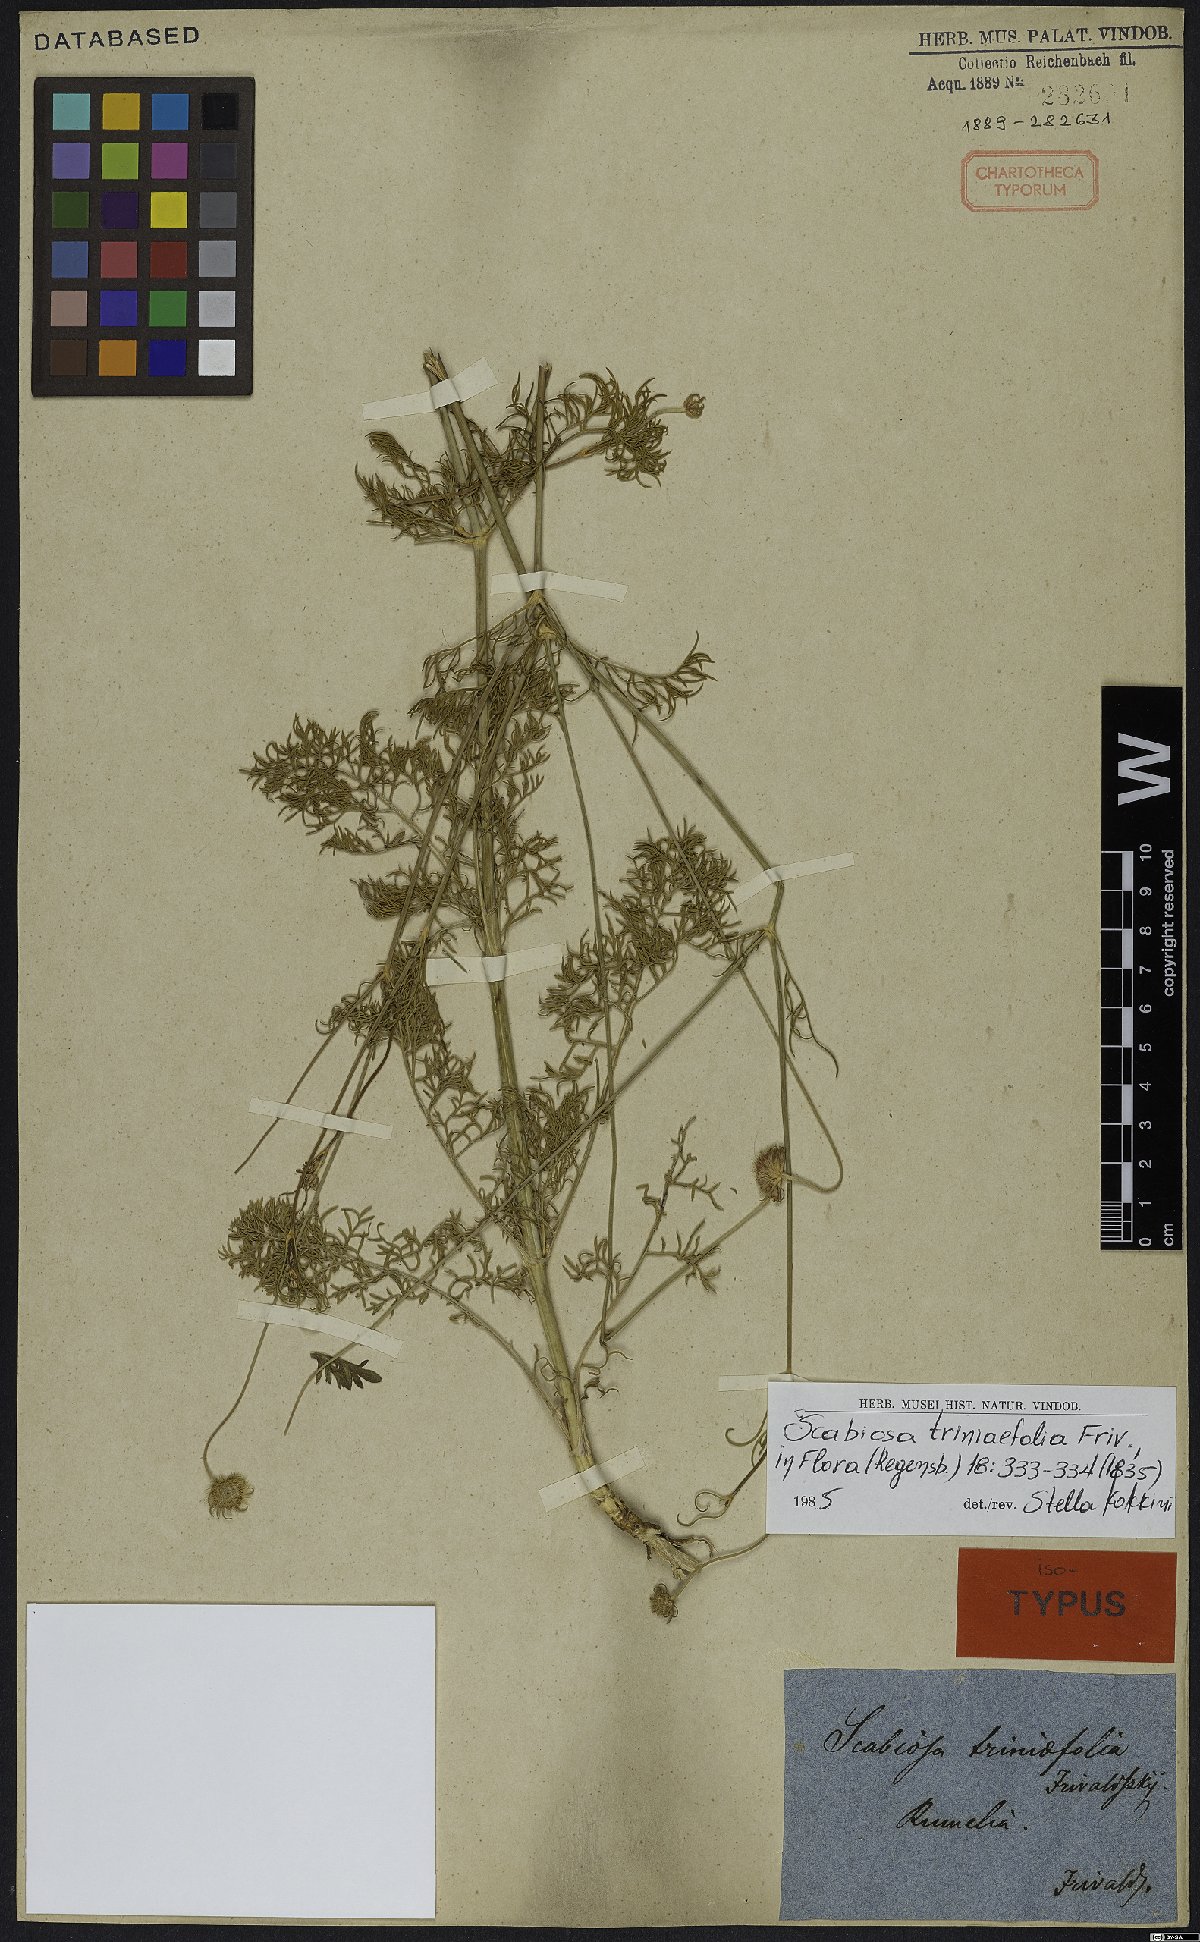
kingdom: Plantae
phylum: Tracheophyta
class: Magnoliopsida
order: Dipsacales
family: Caprifoliaceae
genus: Scabiosa
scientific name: Scabiosa triniifolia
